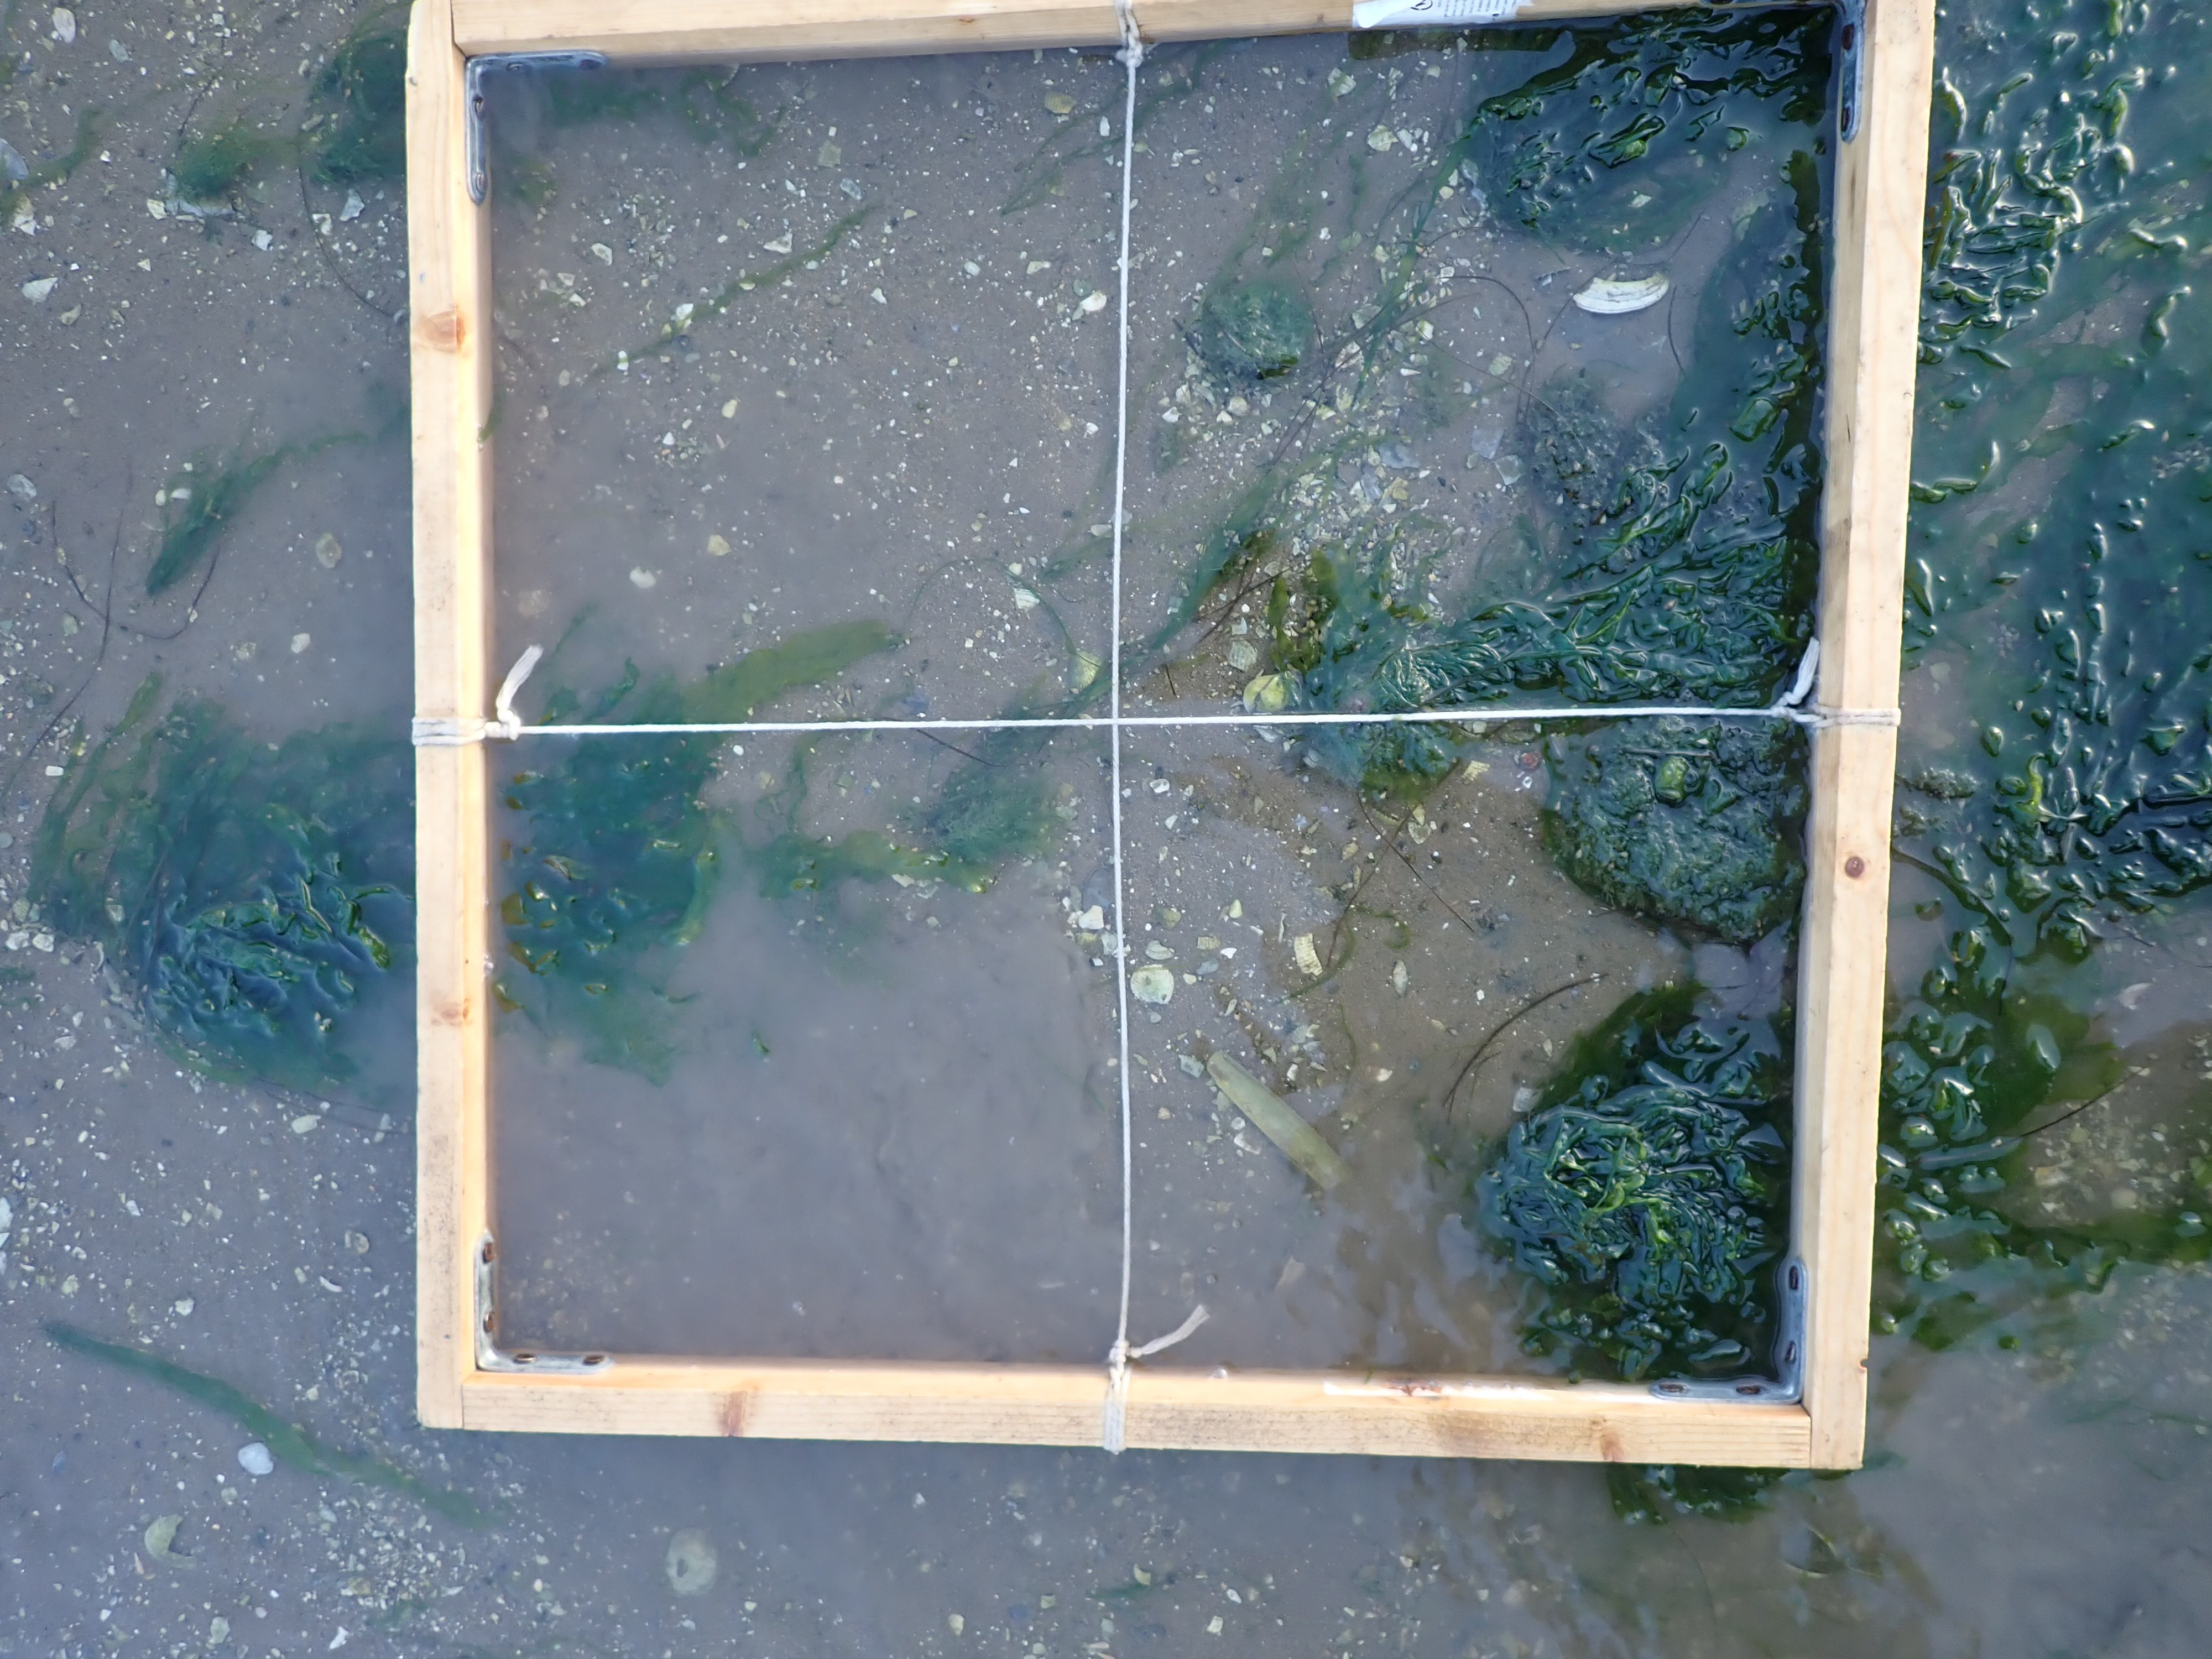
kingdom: Plantae
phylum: Chlorophyta
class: Ulvophyceae
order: Ulvales
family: Ulvaceae
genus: Ulva
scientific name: Ulva
